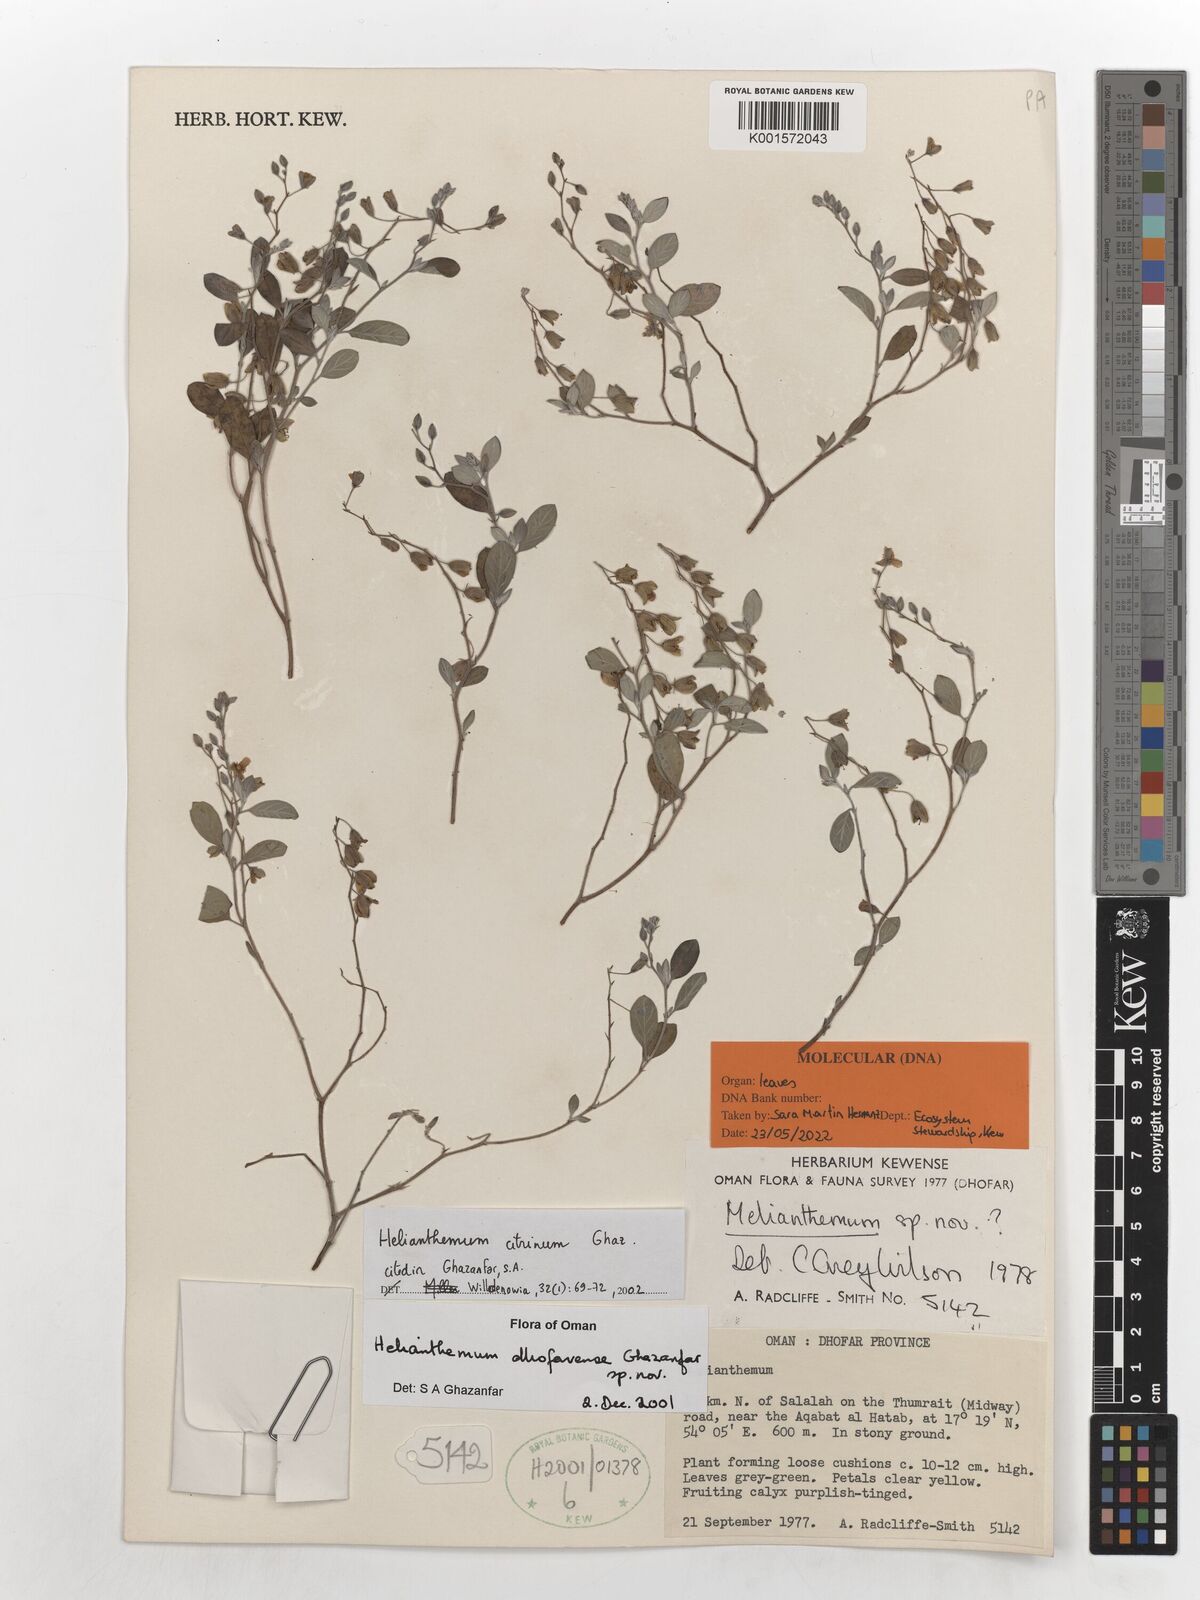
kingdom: Plantae
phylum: Tracheophyta
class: Magnoliopsida
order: Malvales
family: Cistaceae
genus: Helianthemum
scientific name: Helianthemum citrinum
